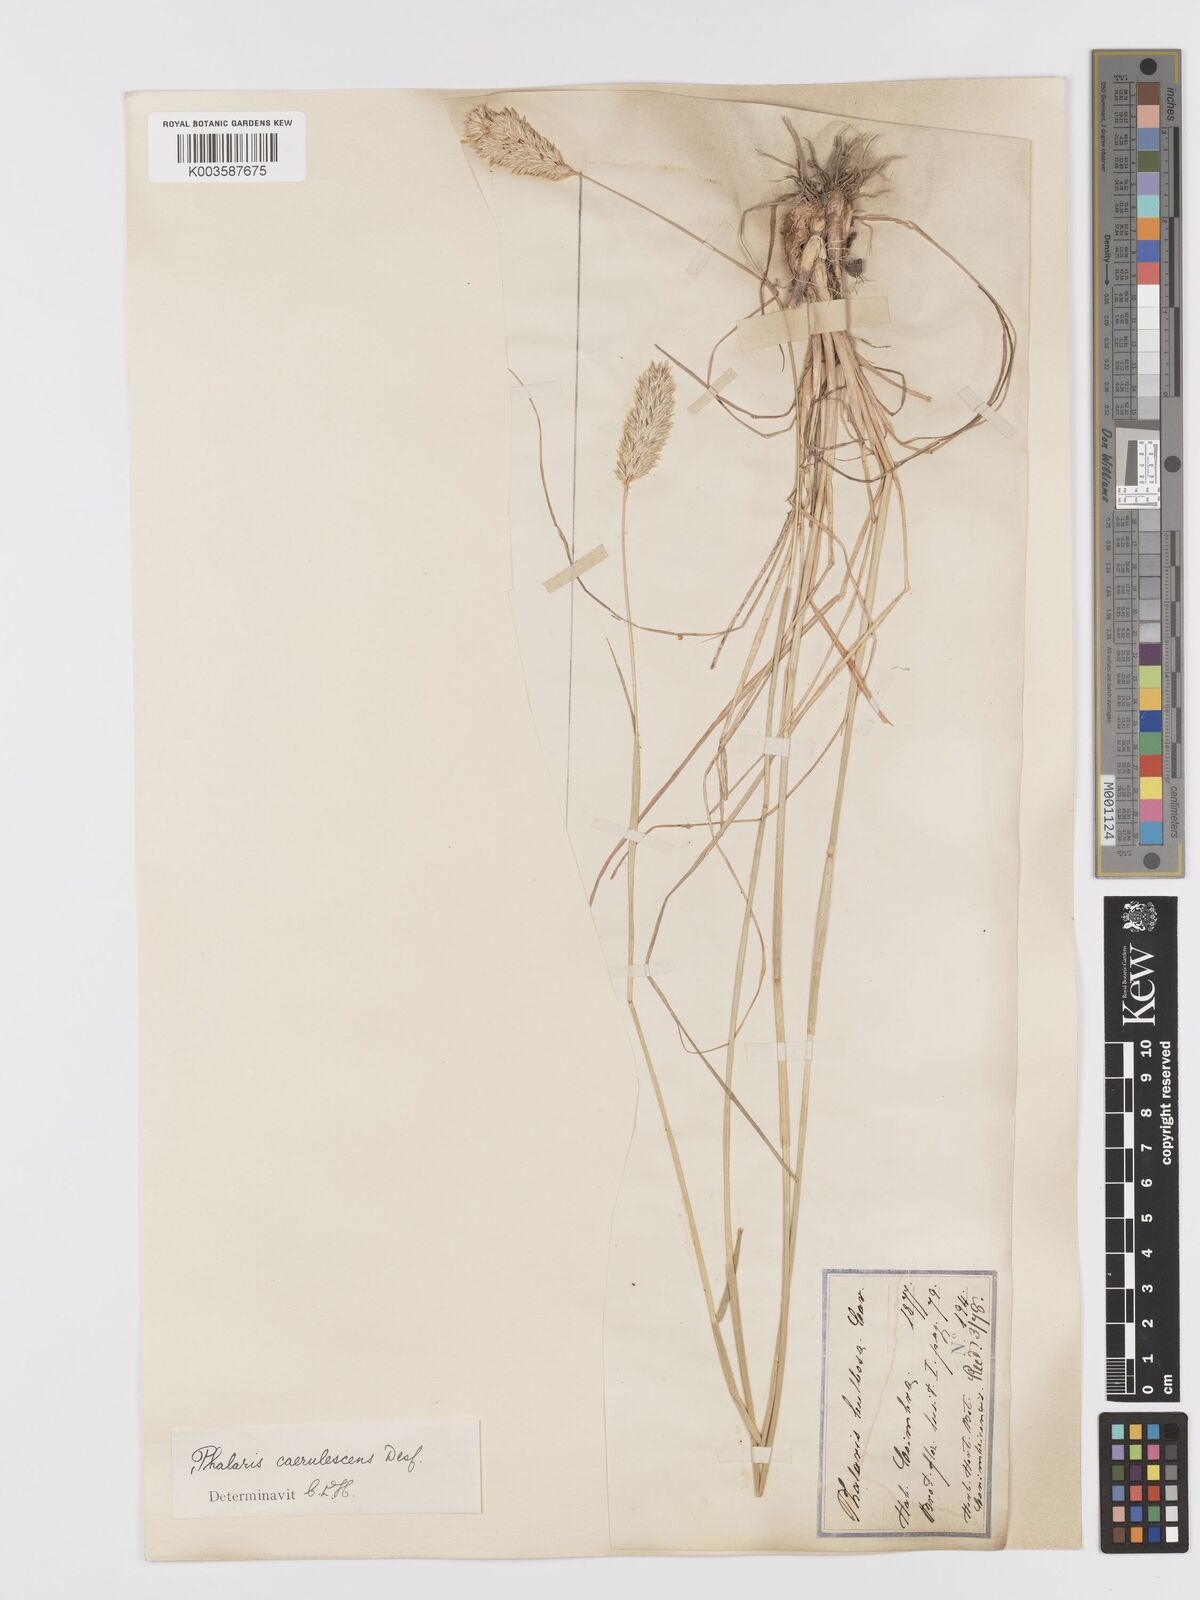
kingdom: Plantae
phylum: Tracheophyta
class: Liliopsida
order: Poales
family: Poaceae
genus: Phalaris
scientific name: Phalaris coerulescens
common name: Sunolgrass
